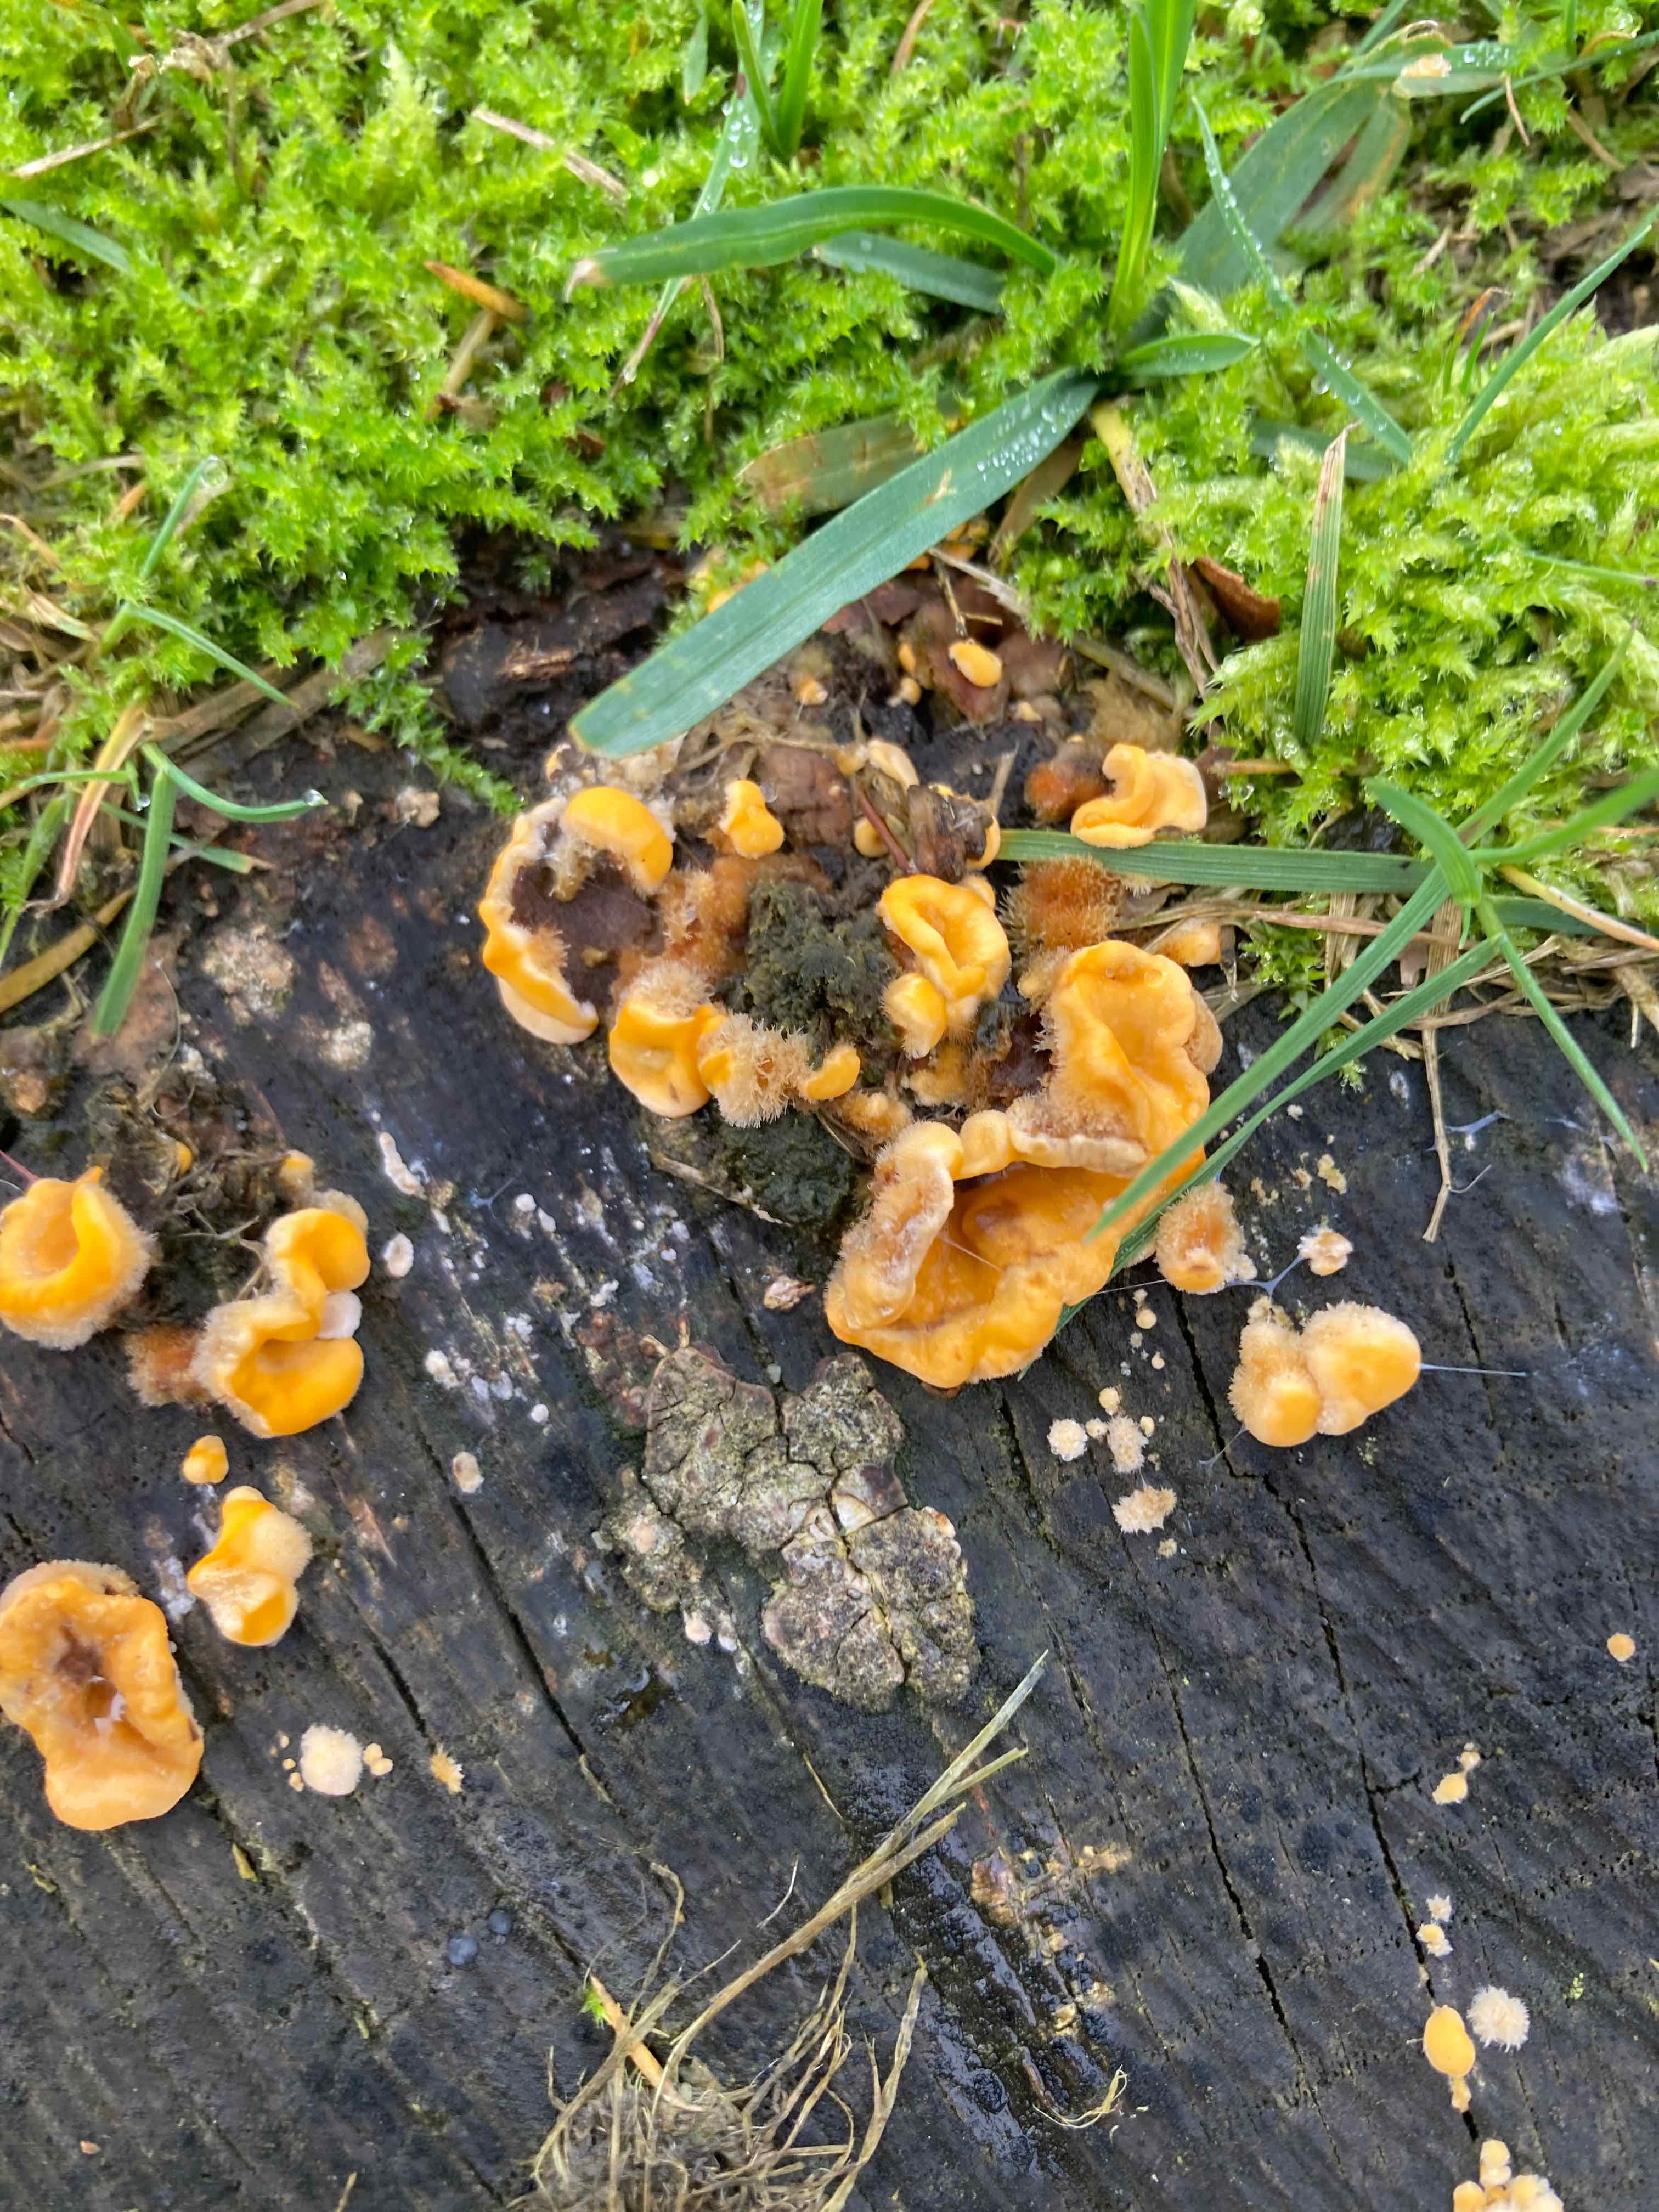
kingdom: Fungi
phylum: Basidiomycota
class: Agaricomycetes
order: Russulales
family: Stereaceae
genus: Stereum
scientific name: Stereum hirsutum
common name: håret lædersvamp
